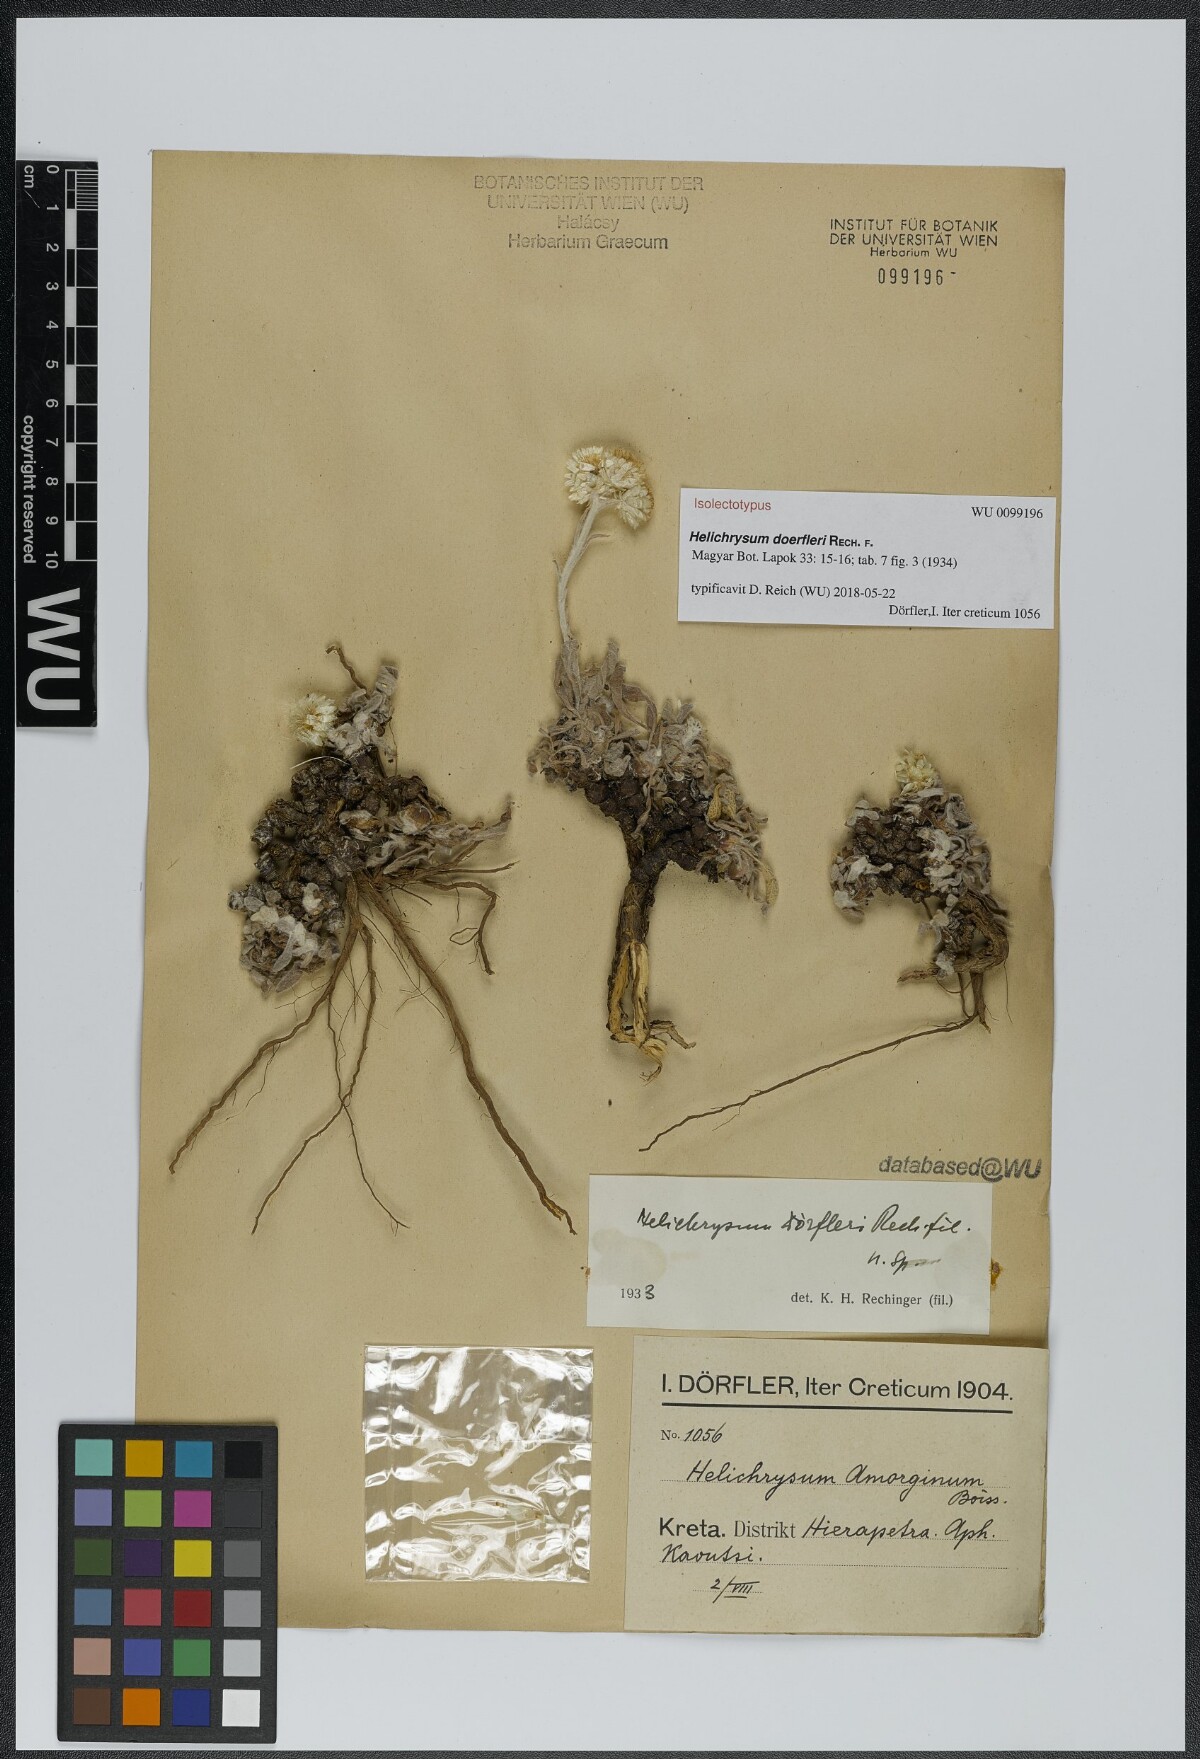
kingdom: Plantae
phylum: Tracheophyta
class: Magnoliopsida
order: Asterales
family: Asteraceae
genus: Helichrysum
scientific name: Helichrysum doerfleri
